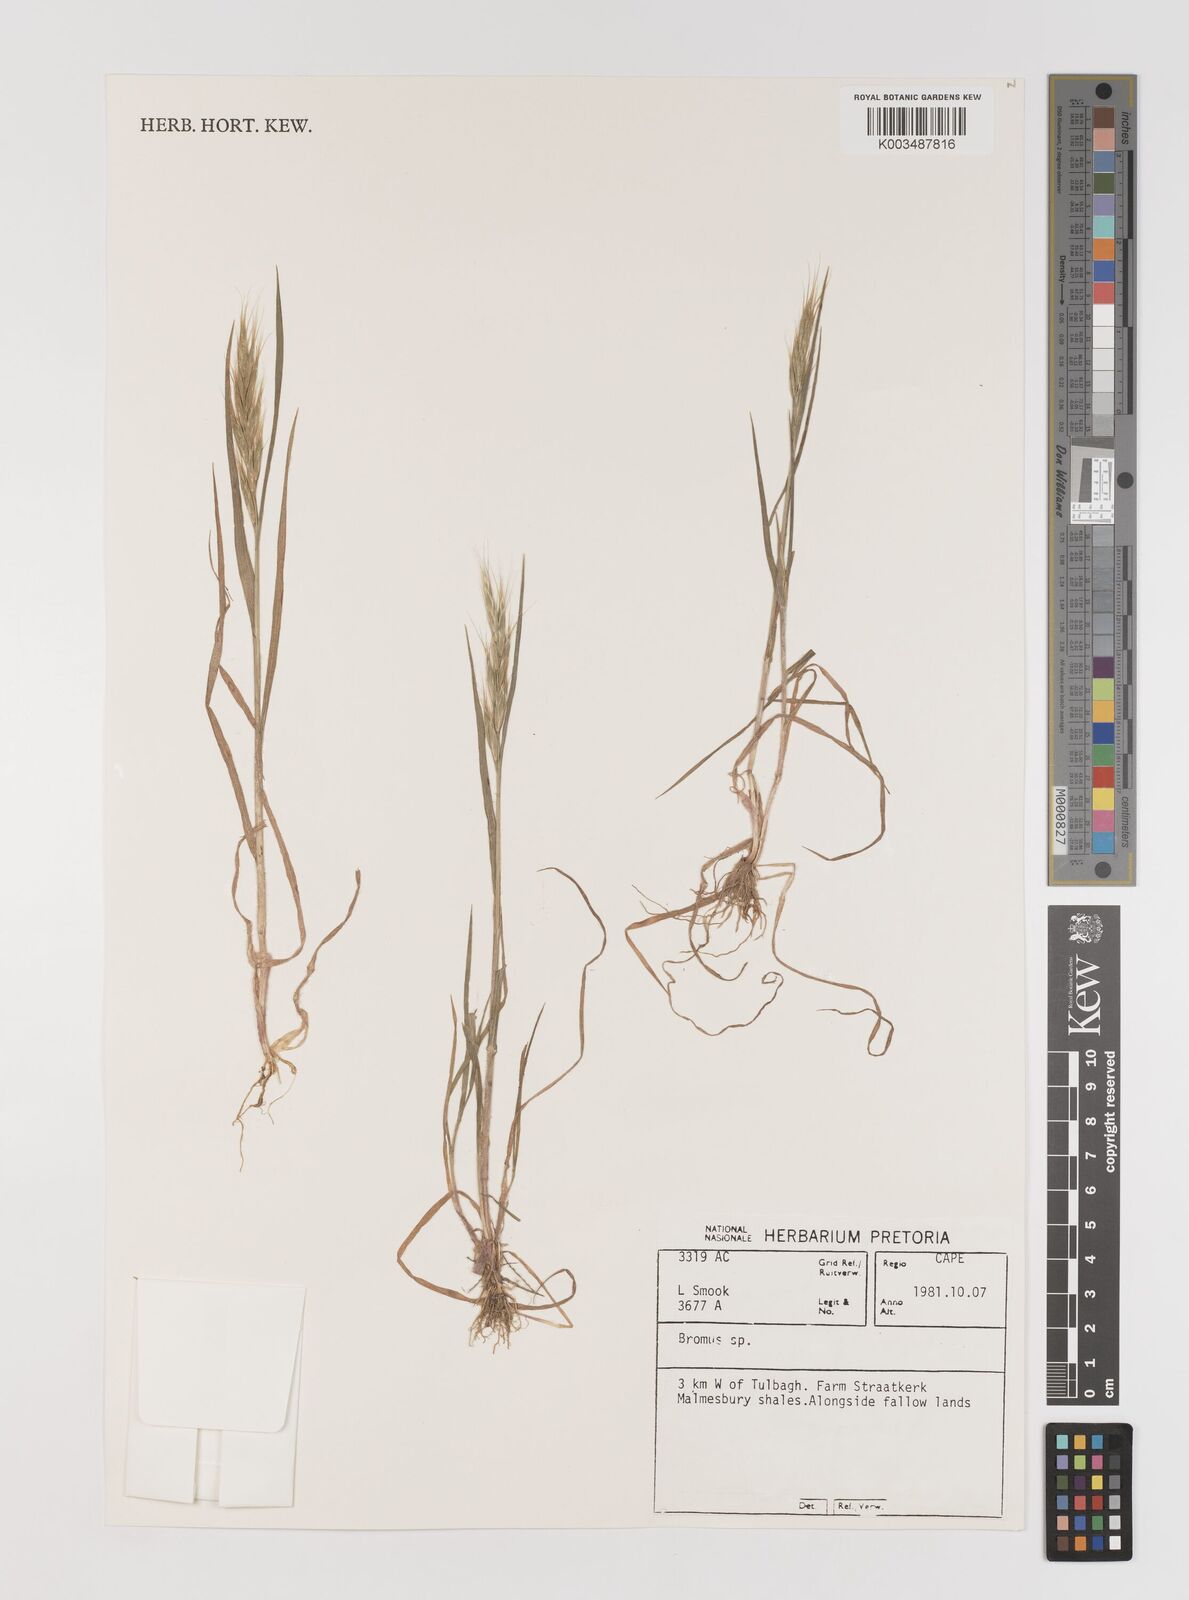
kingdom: Plantae
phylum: Tracheophyta
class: Liliopsida
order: Poales
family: Poaceae
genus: Bromus
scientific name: Bromus
